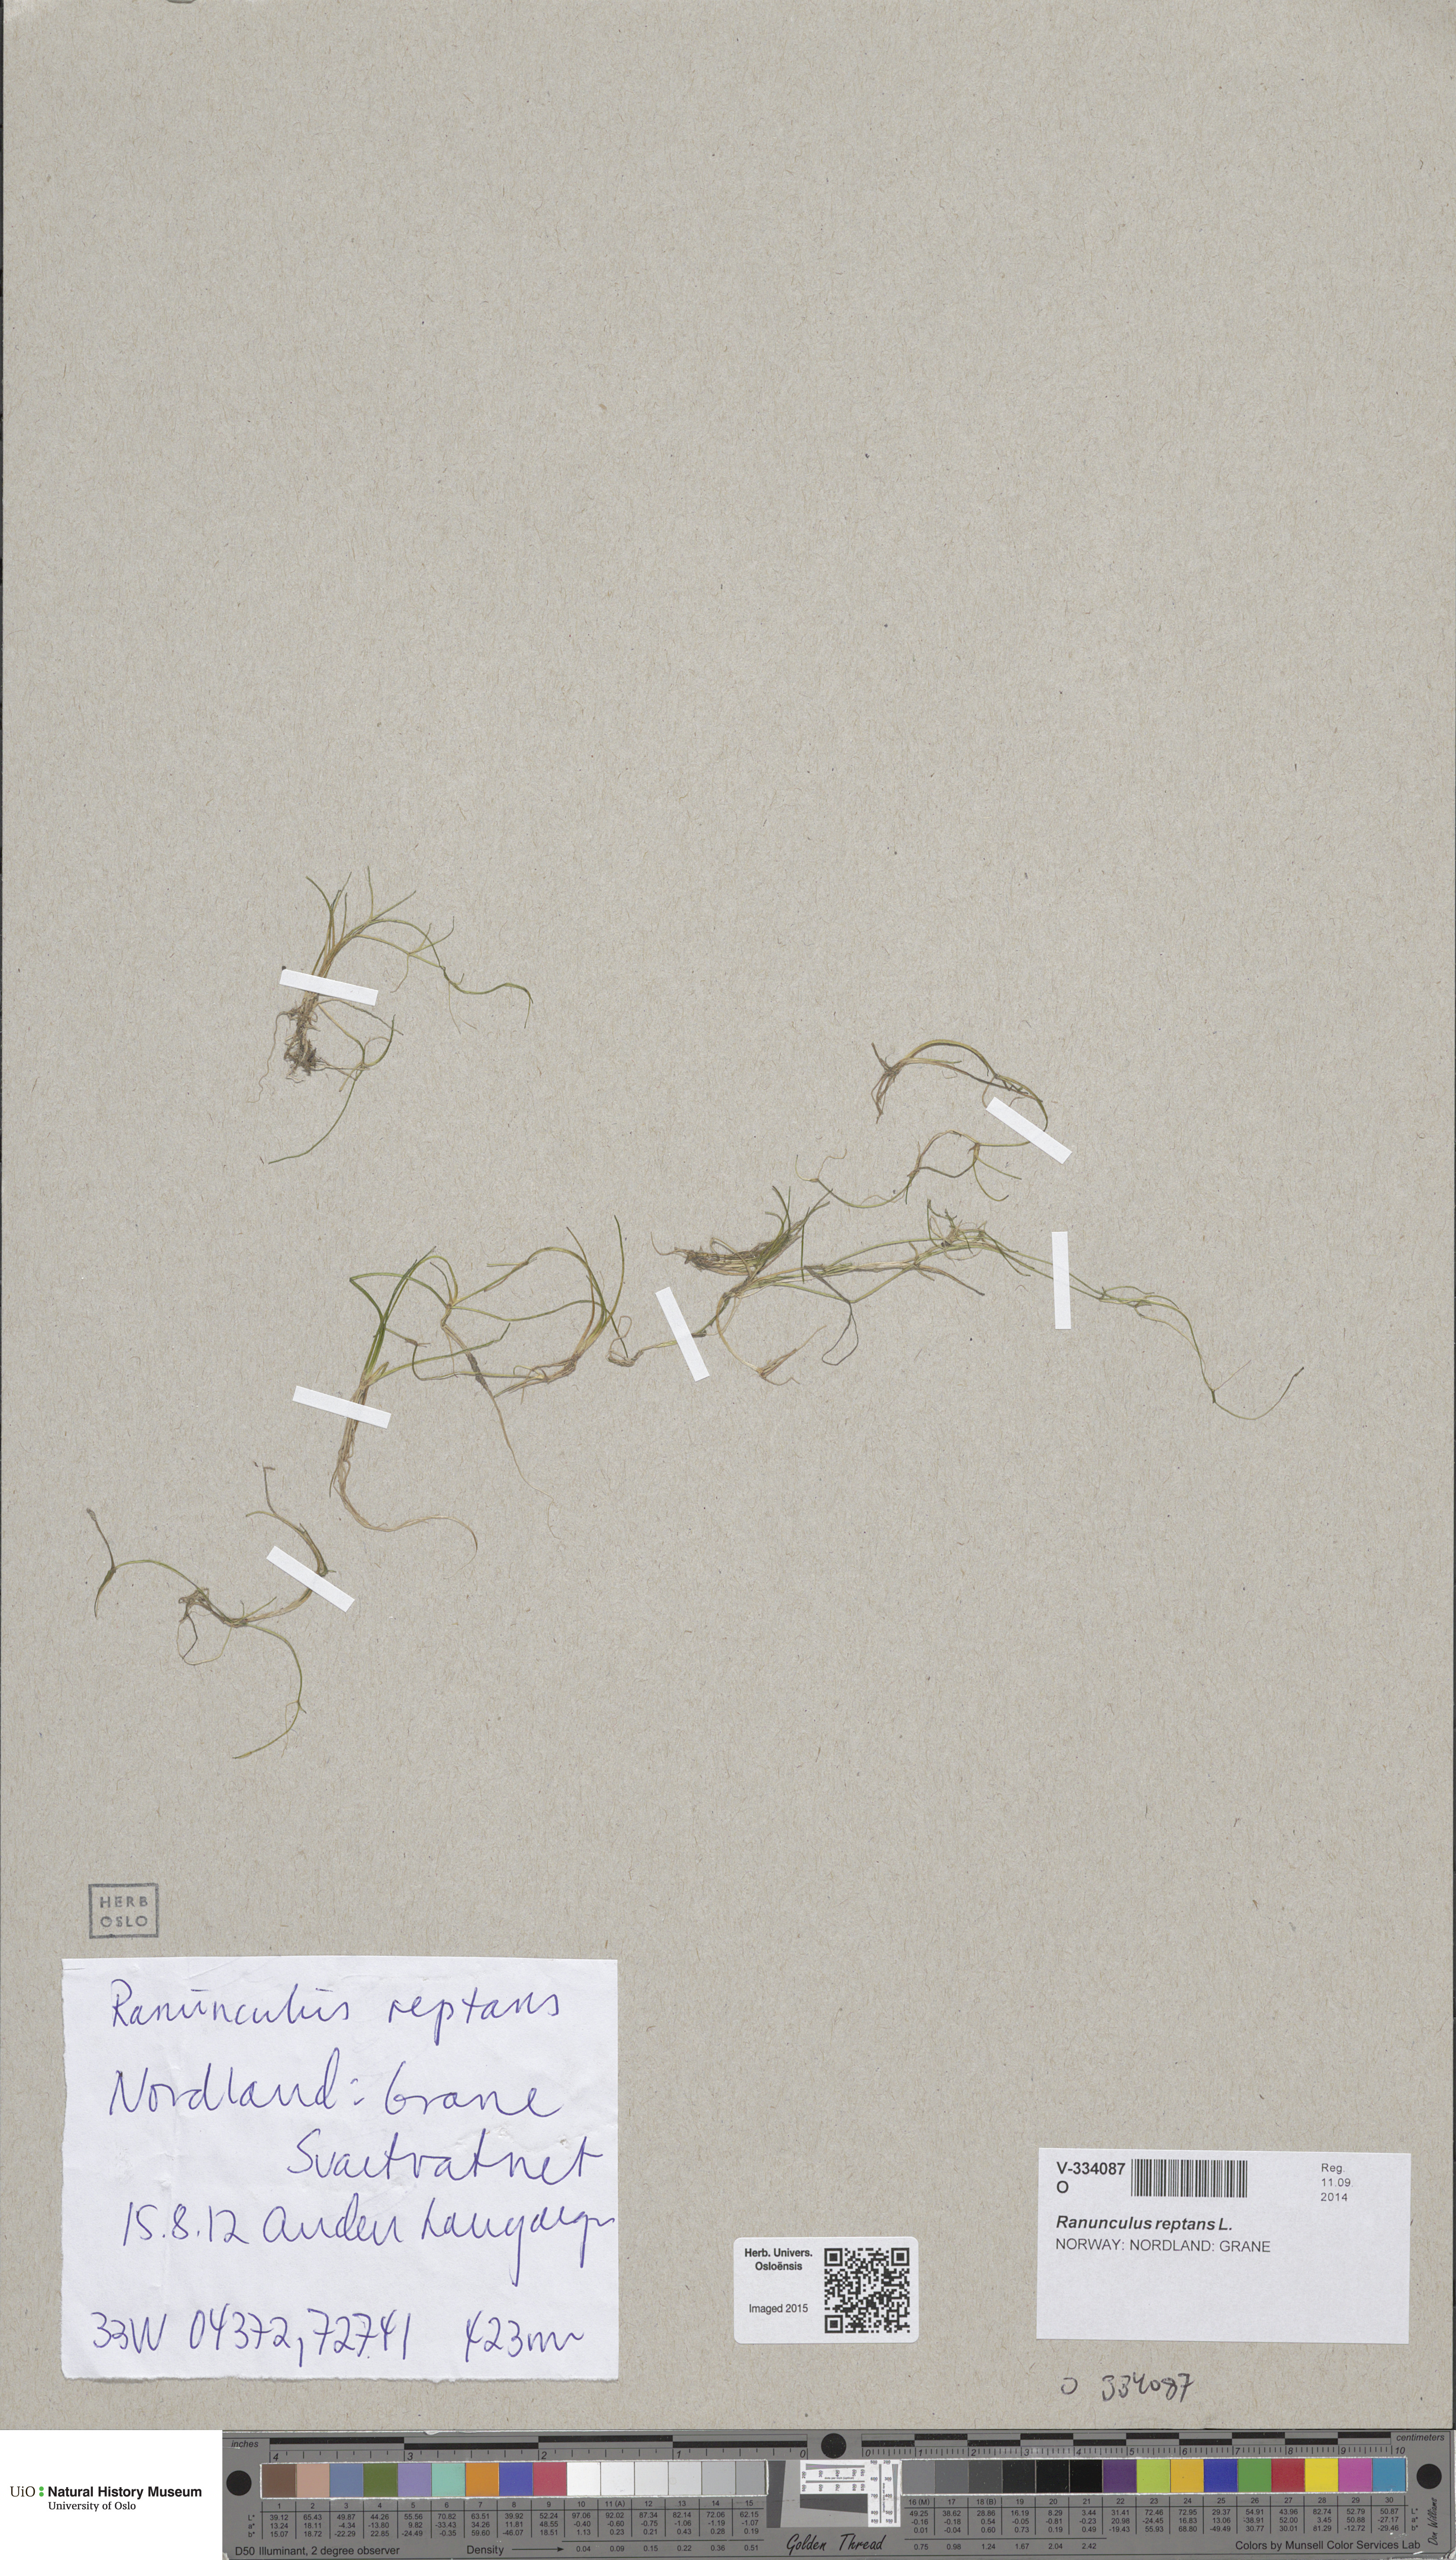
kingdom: Plantae
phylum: Tracheophyta
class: Magnoliopsida
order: Ranunculales
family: Ranunculaceae
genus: Ranunculus
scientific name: Ranunculus reptans
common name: Creeping spearwort
